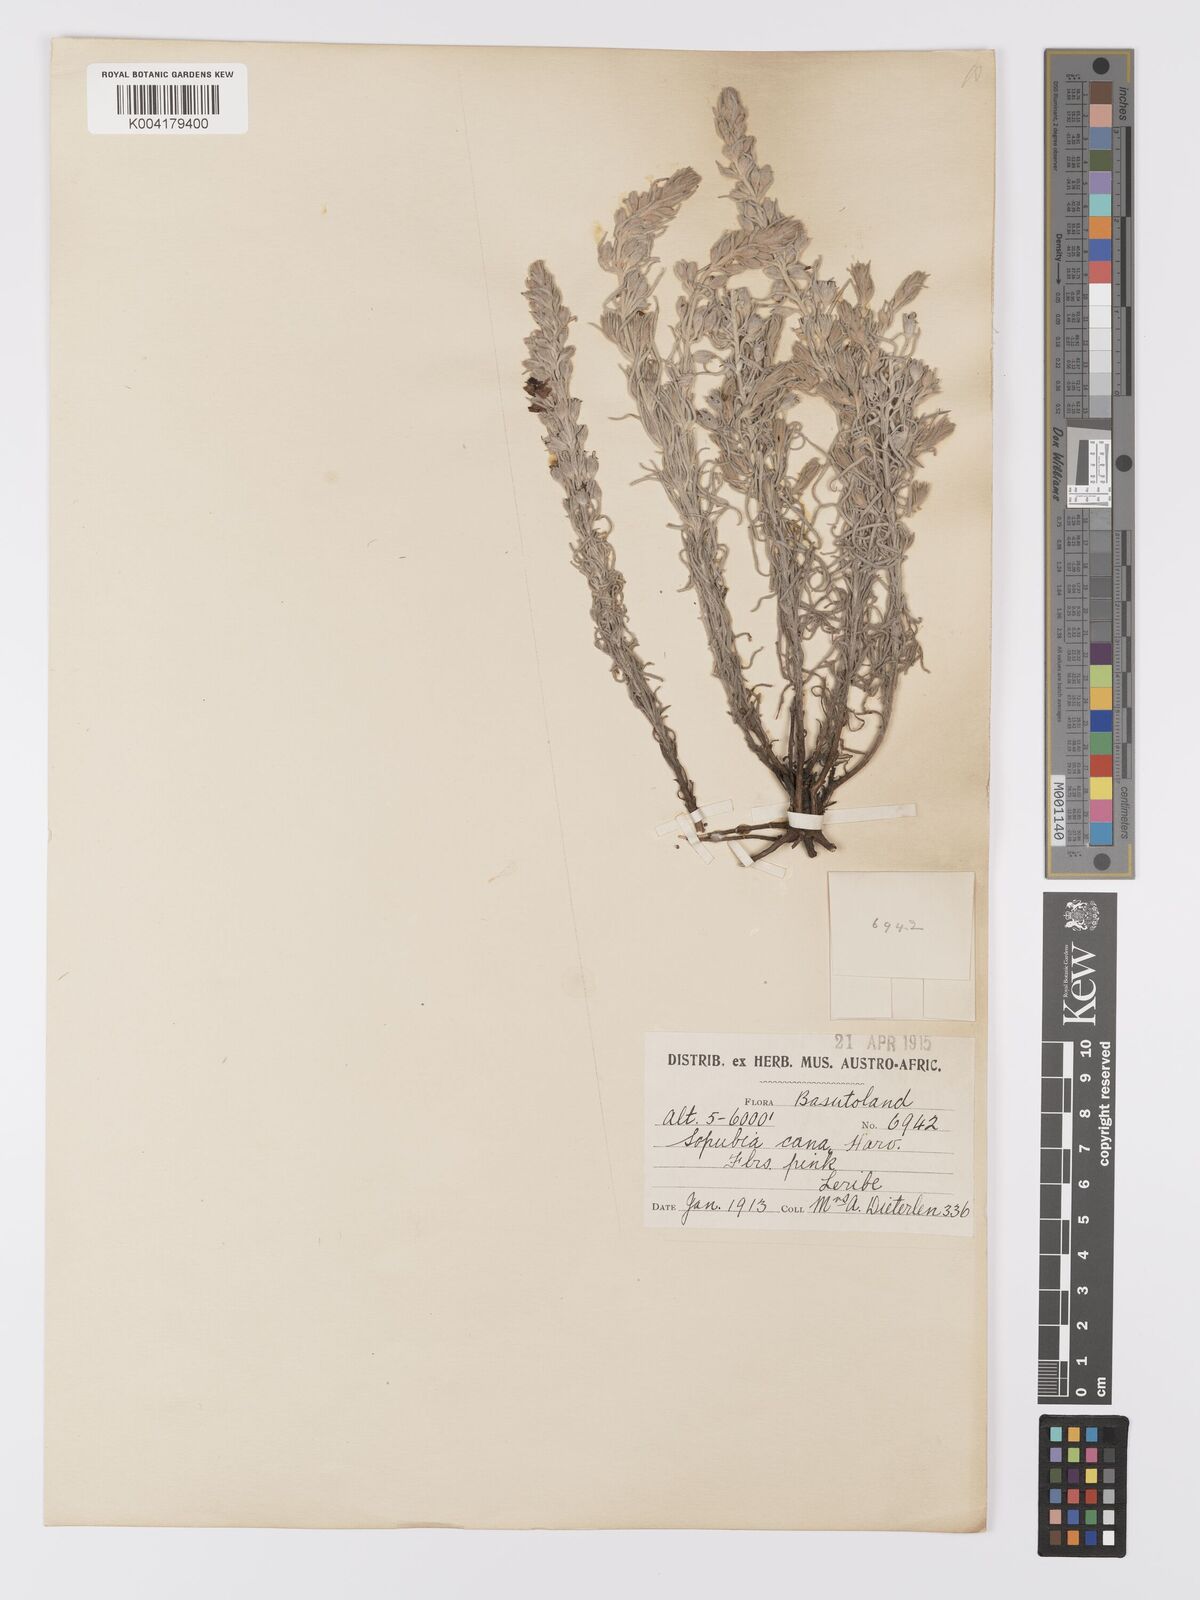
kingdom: Plantae
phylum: Tracheophyta
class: Magnoliopsida
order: Lamiales
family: Orobanchaceae
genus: Sopubia
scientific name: Sopubia cana
